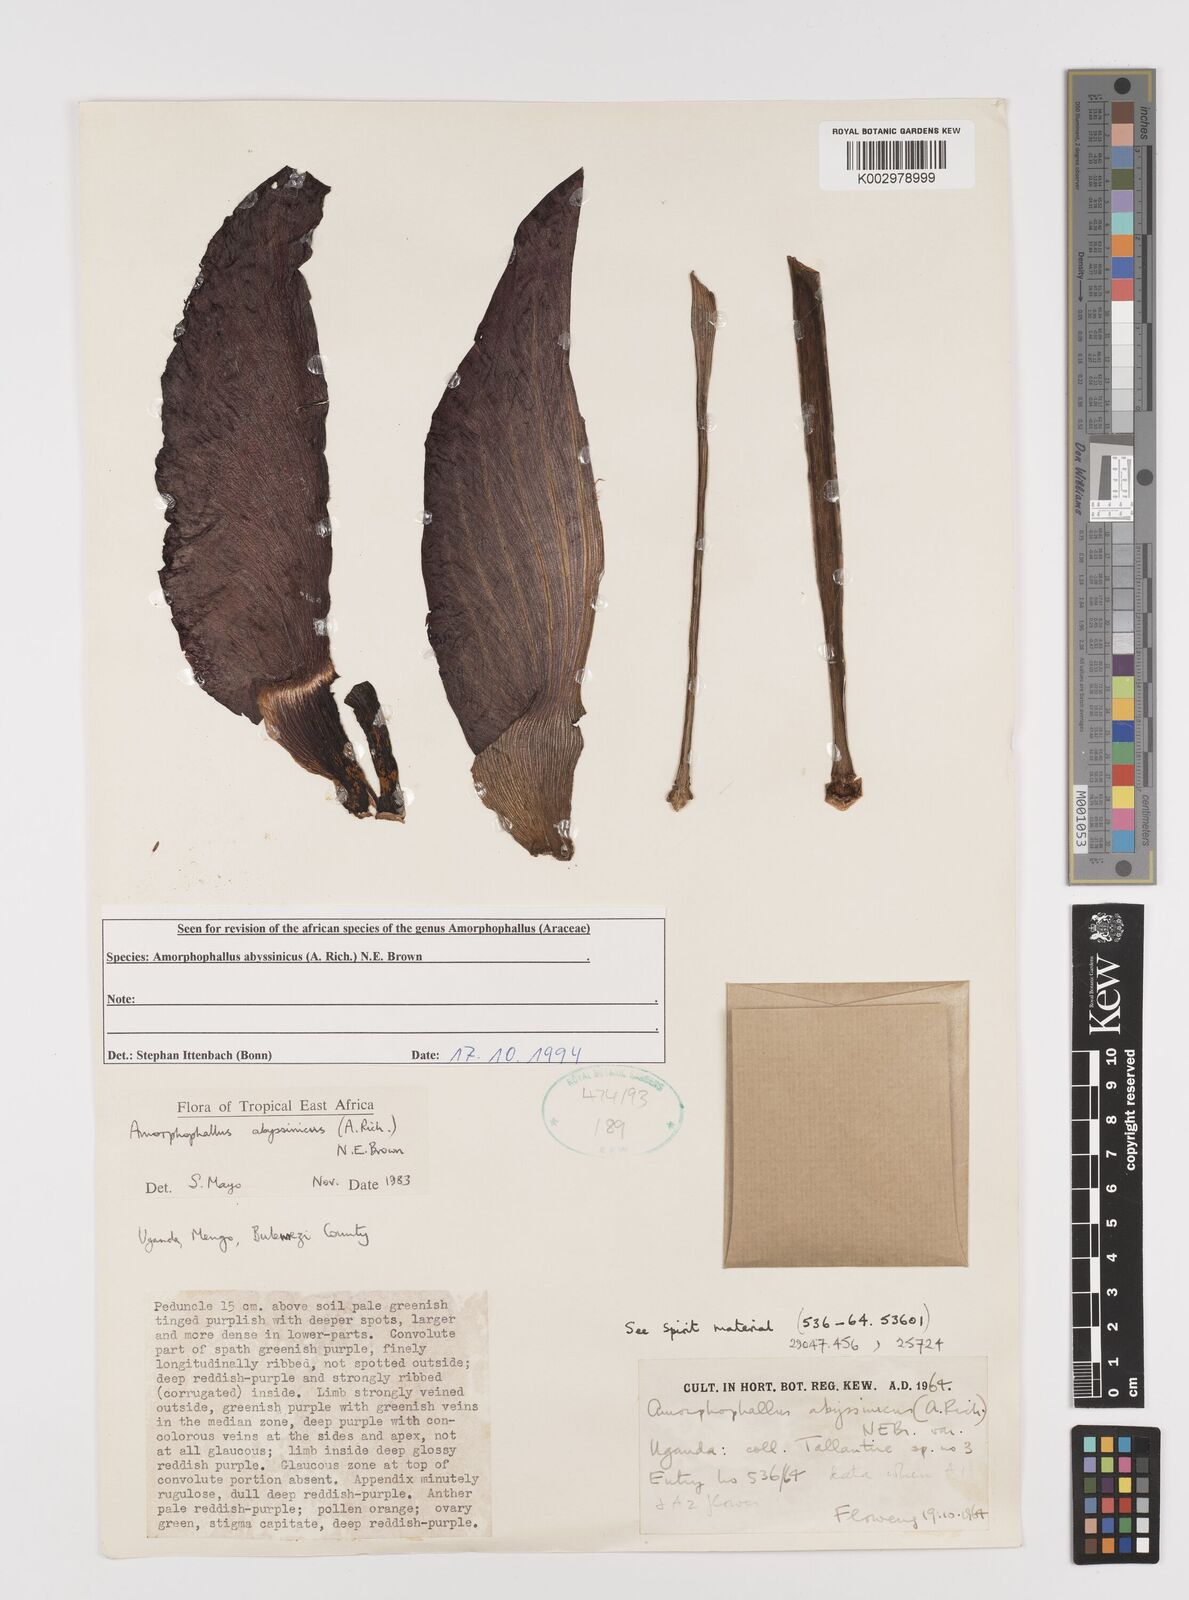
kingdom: Plantae
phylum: Tracheophyta
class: Liliopsida
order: Alismatales
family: Araceae
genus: Amorphophallus
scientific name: Amorphophallus abyssinicus
